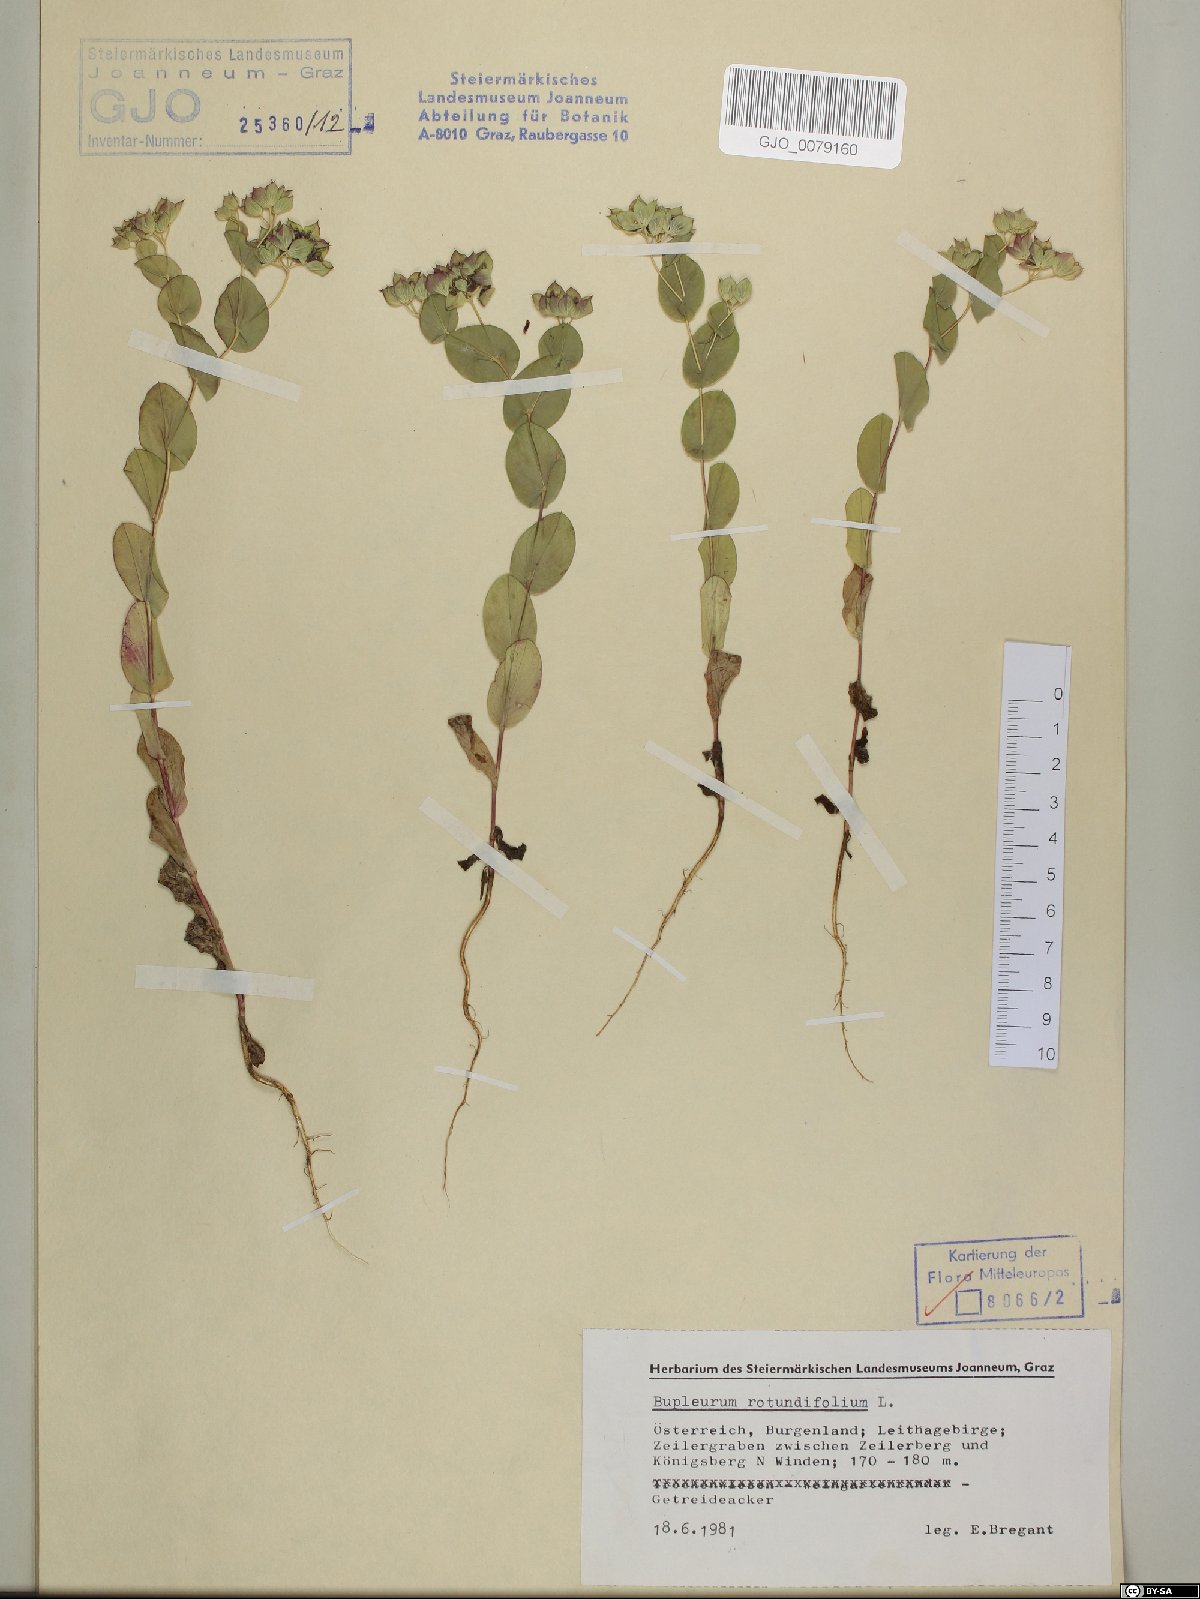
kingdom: Plantae
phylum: Tracheophyta
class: Magnoliopsida
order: Apiales
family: Apiaceae
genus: Bupleurum
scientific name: Bupleurum rotundifolium
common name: Thorow-wax
